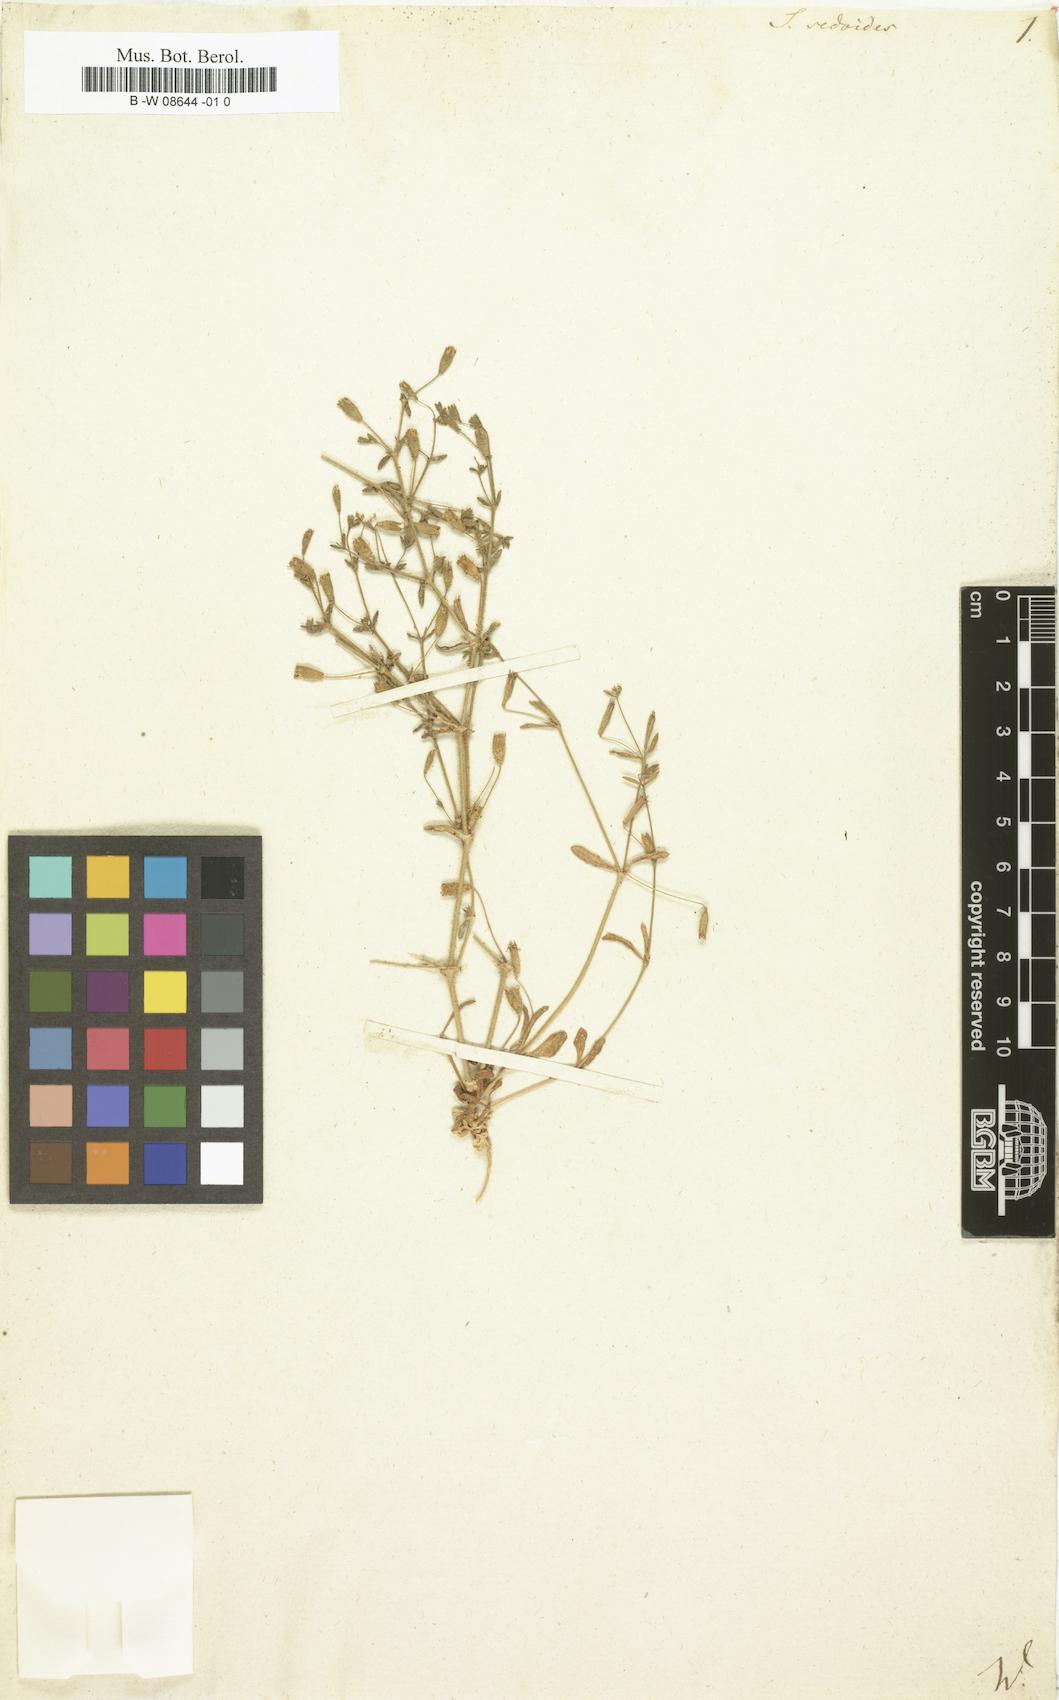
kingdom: Plantae
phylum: Tracheophyta
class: Magnoliopsida
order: Caryophyllales
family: Caryophyllaceae
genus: Silene
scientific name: Silene sedoides
